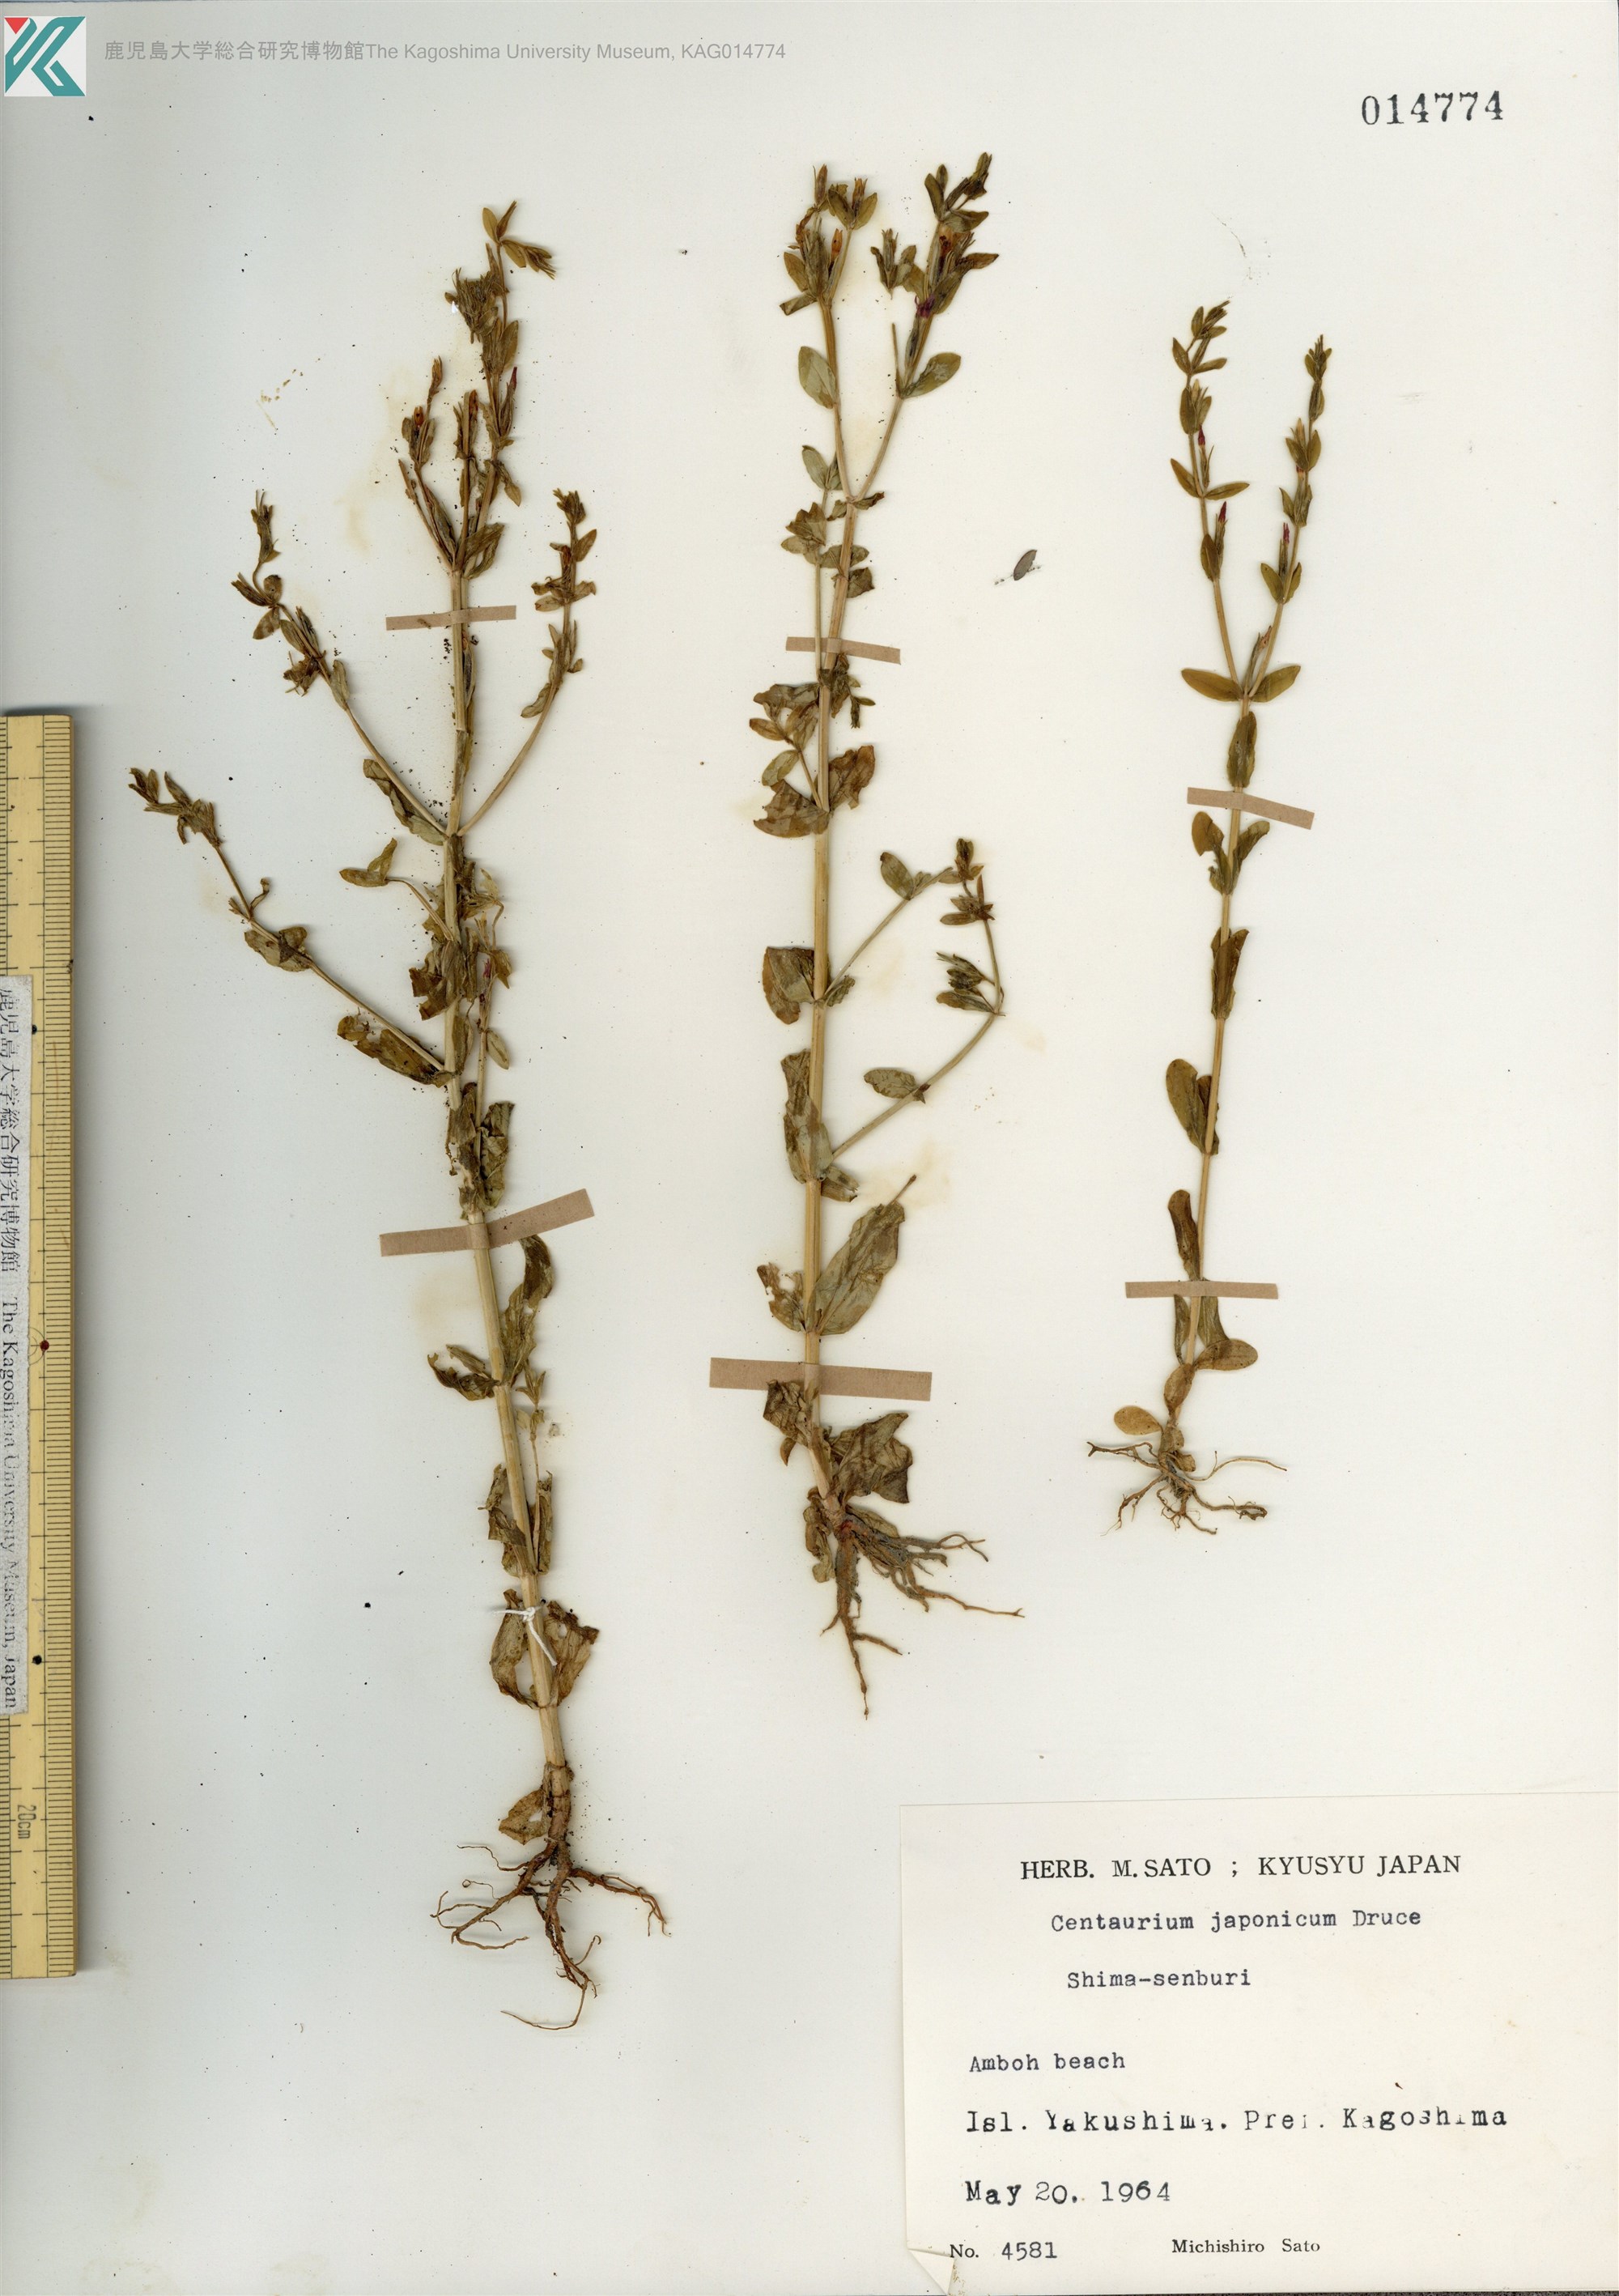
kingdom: Plantae
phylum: Tracheophyta
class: Magnoliopsida
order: Gentianales
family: Gentianaceae
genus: Schenkia
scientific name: Schenkia japonica
